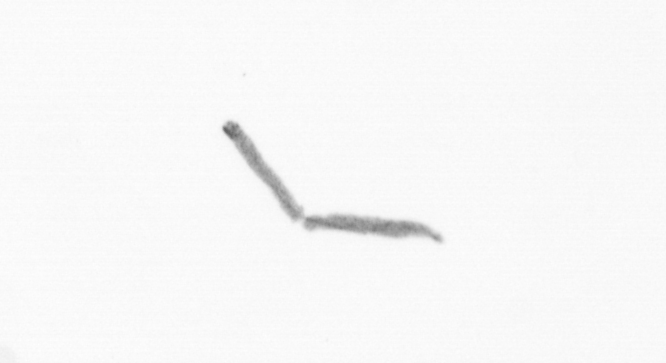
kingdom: Chromista
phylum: Ochrophyta
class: Bacillariophyceae
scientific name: Bacillariophyceae
